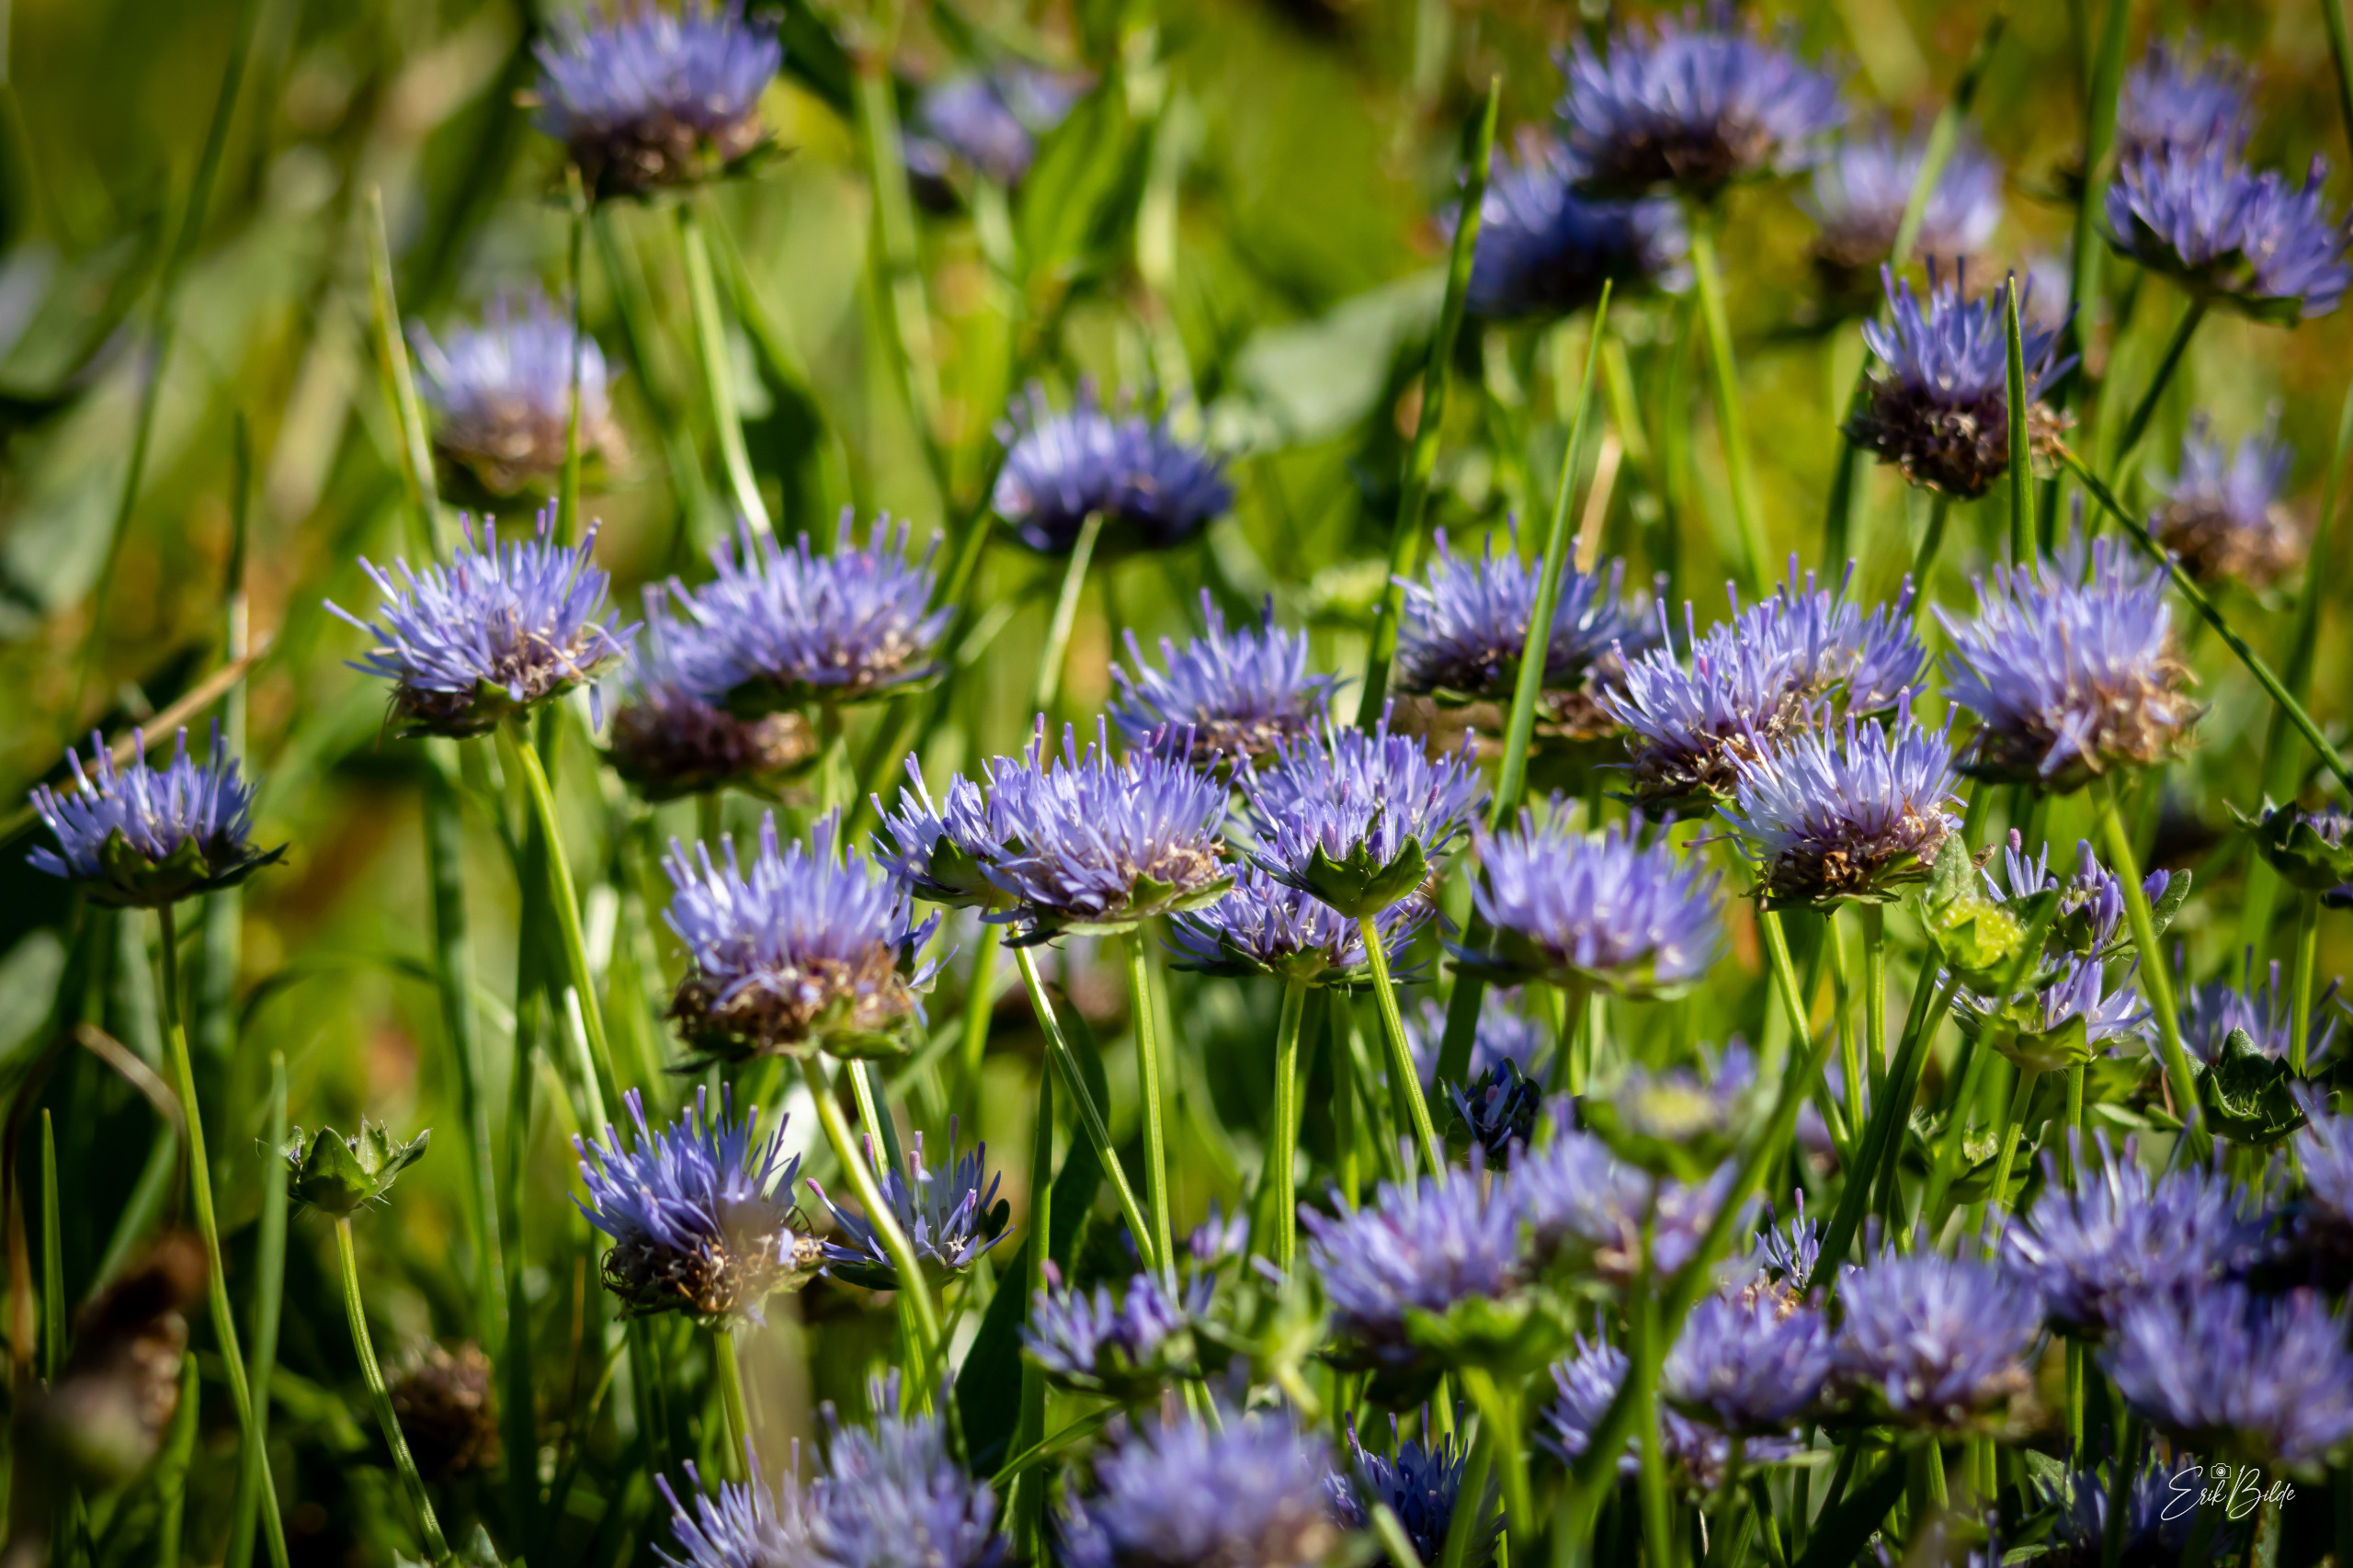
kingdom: Plantae
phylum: Tracheophyta
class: Magnoliopsida
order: Asterales
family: Campanulaceae
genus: Jasione
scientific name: Jasione montana
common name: Blåmunke
